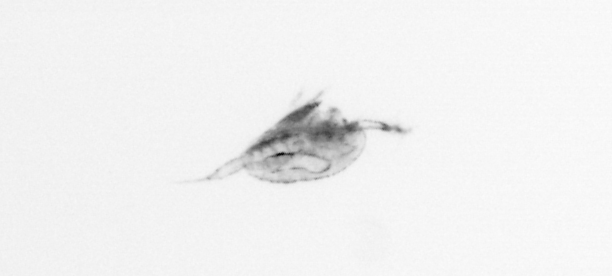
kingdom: Animalia
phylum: Arthropoda
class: Copepoda
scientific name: Copepoda
